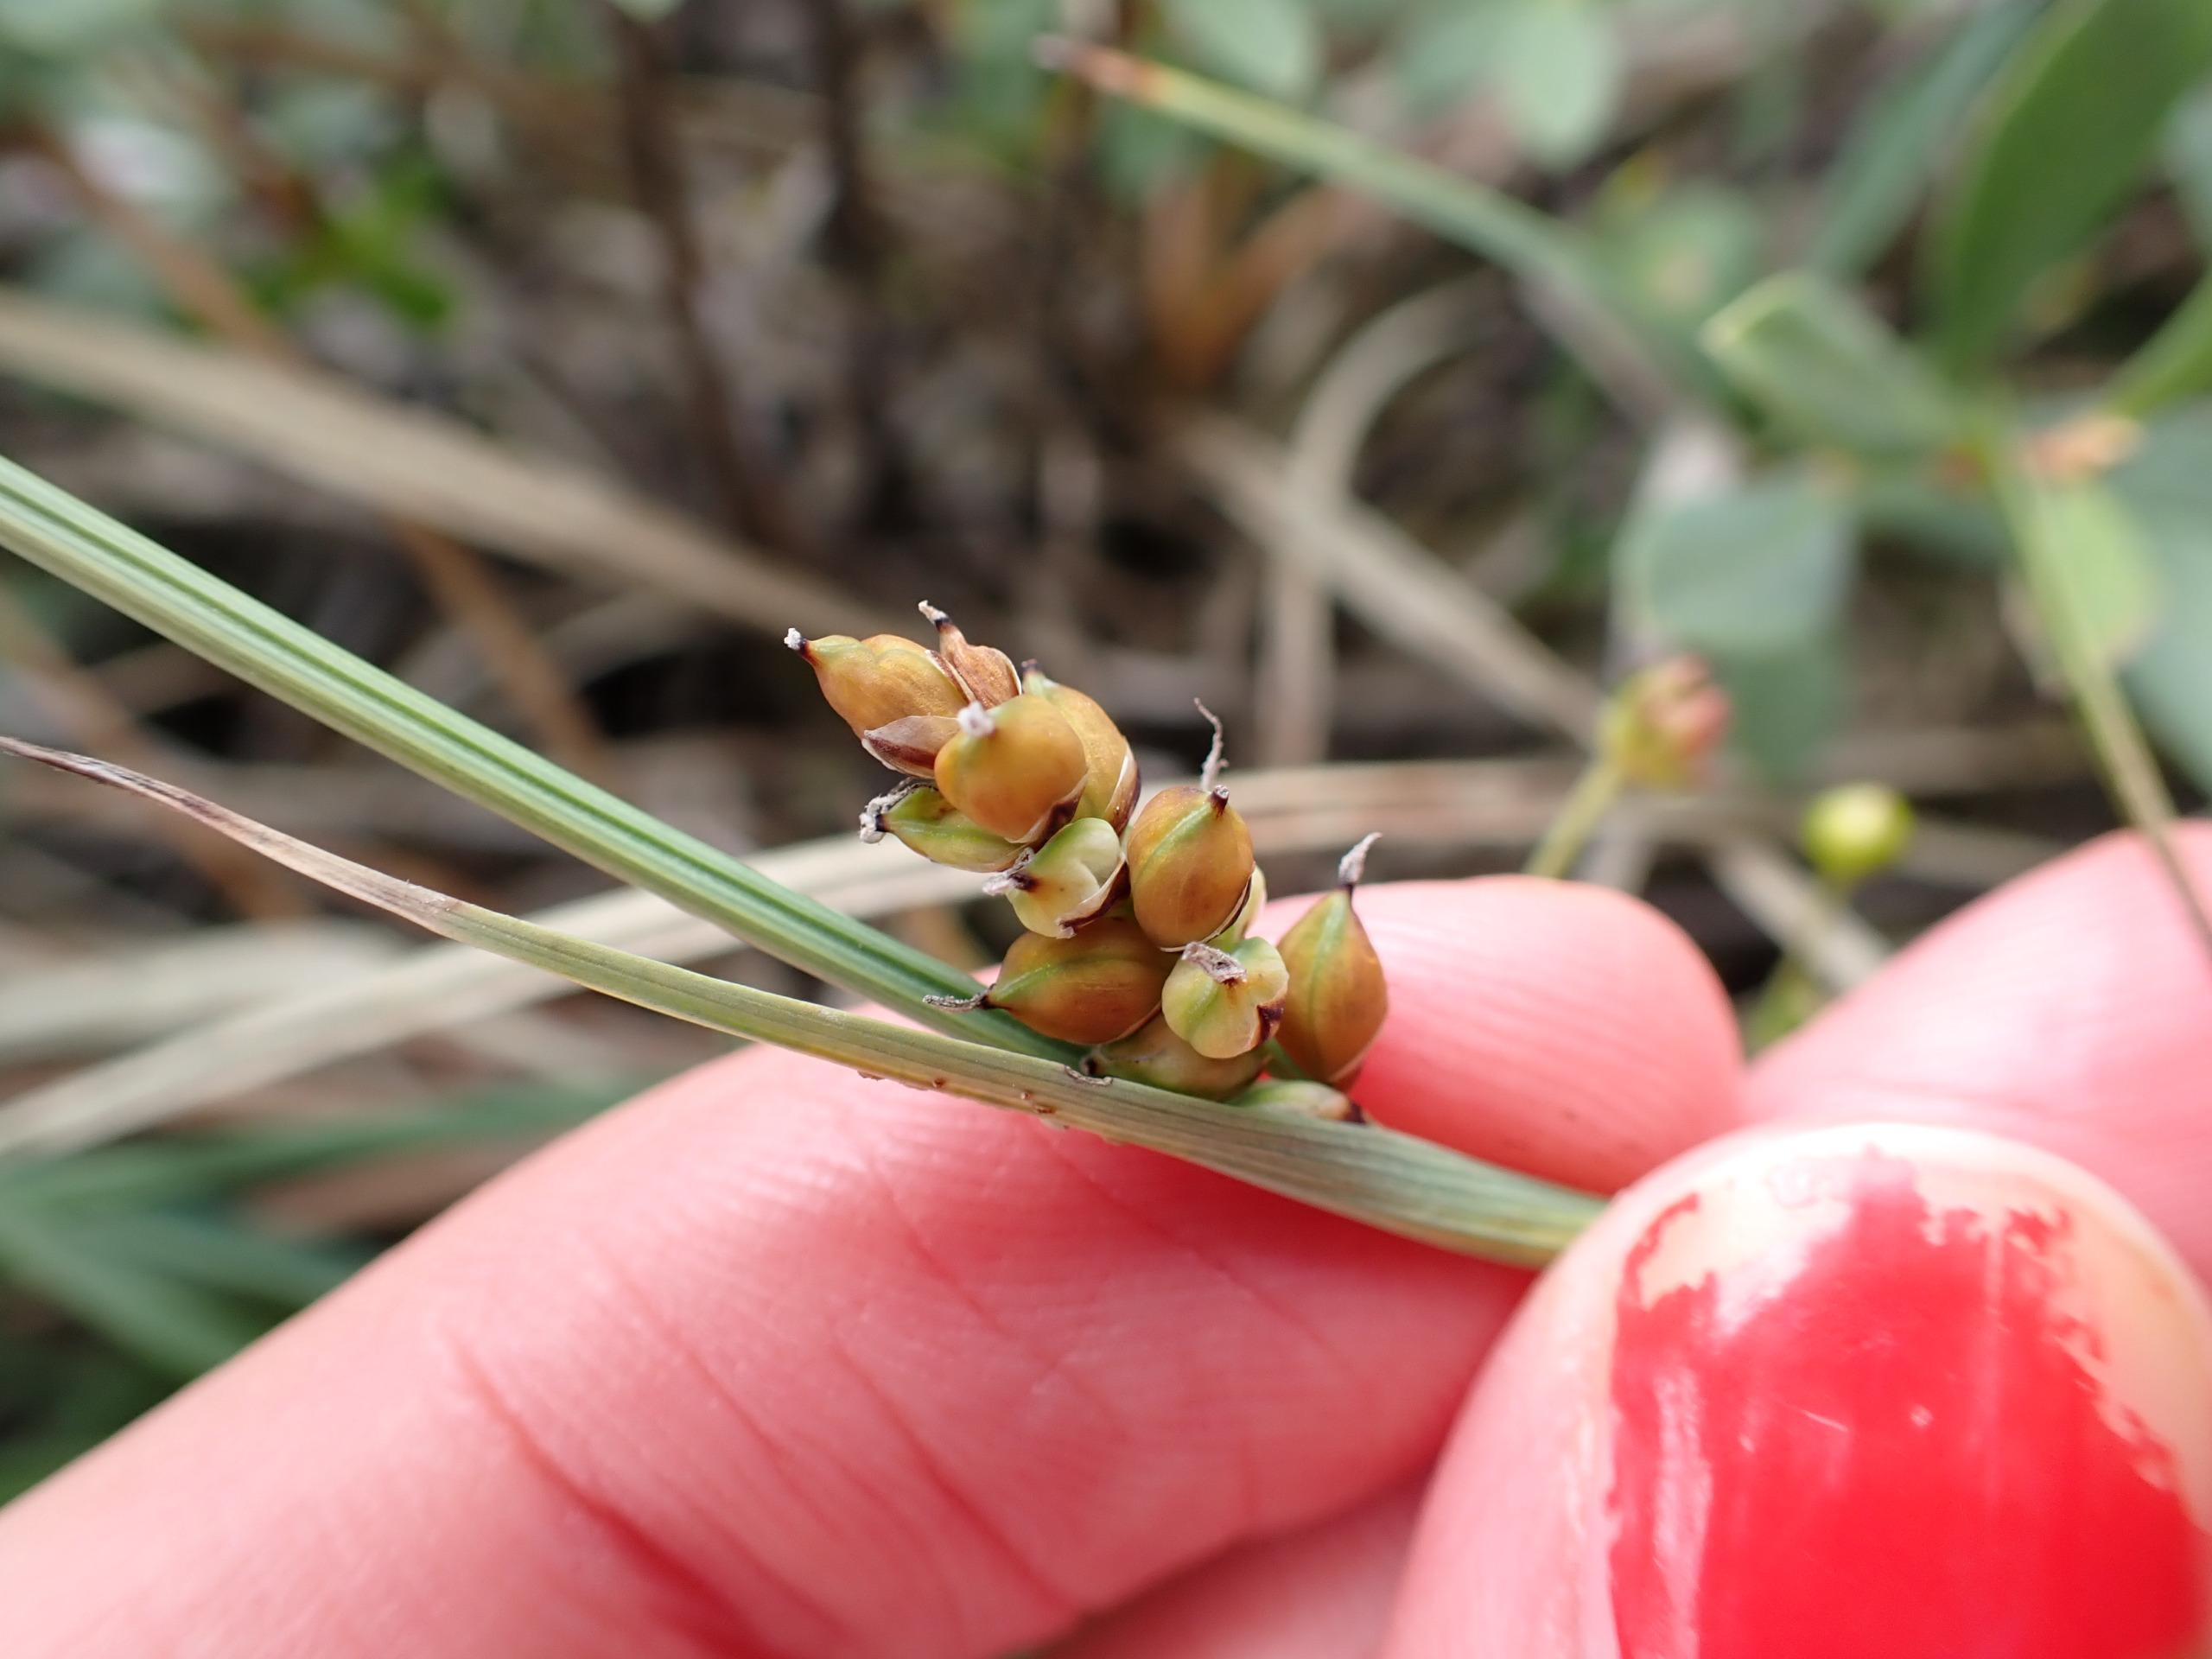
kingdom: Plantae
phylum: Tracheophyta
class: Liliopsida
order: Poales
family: Cyperaceae
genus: Carex
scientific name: Carex panicea
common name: Hirse-star
